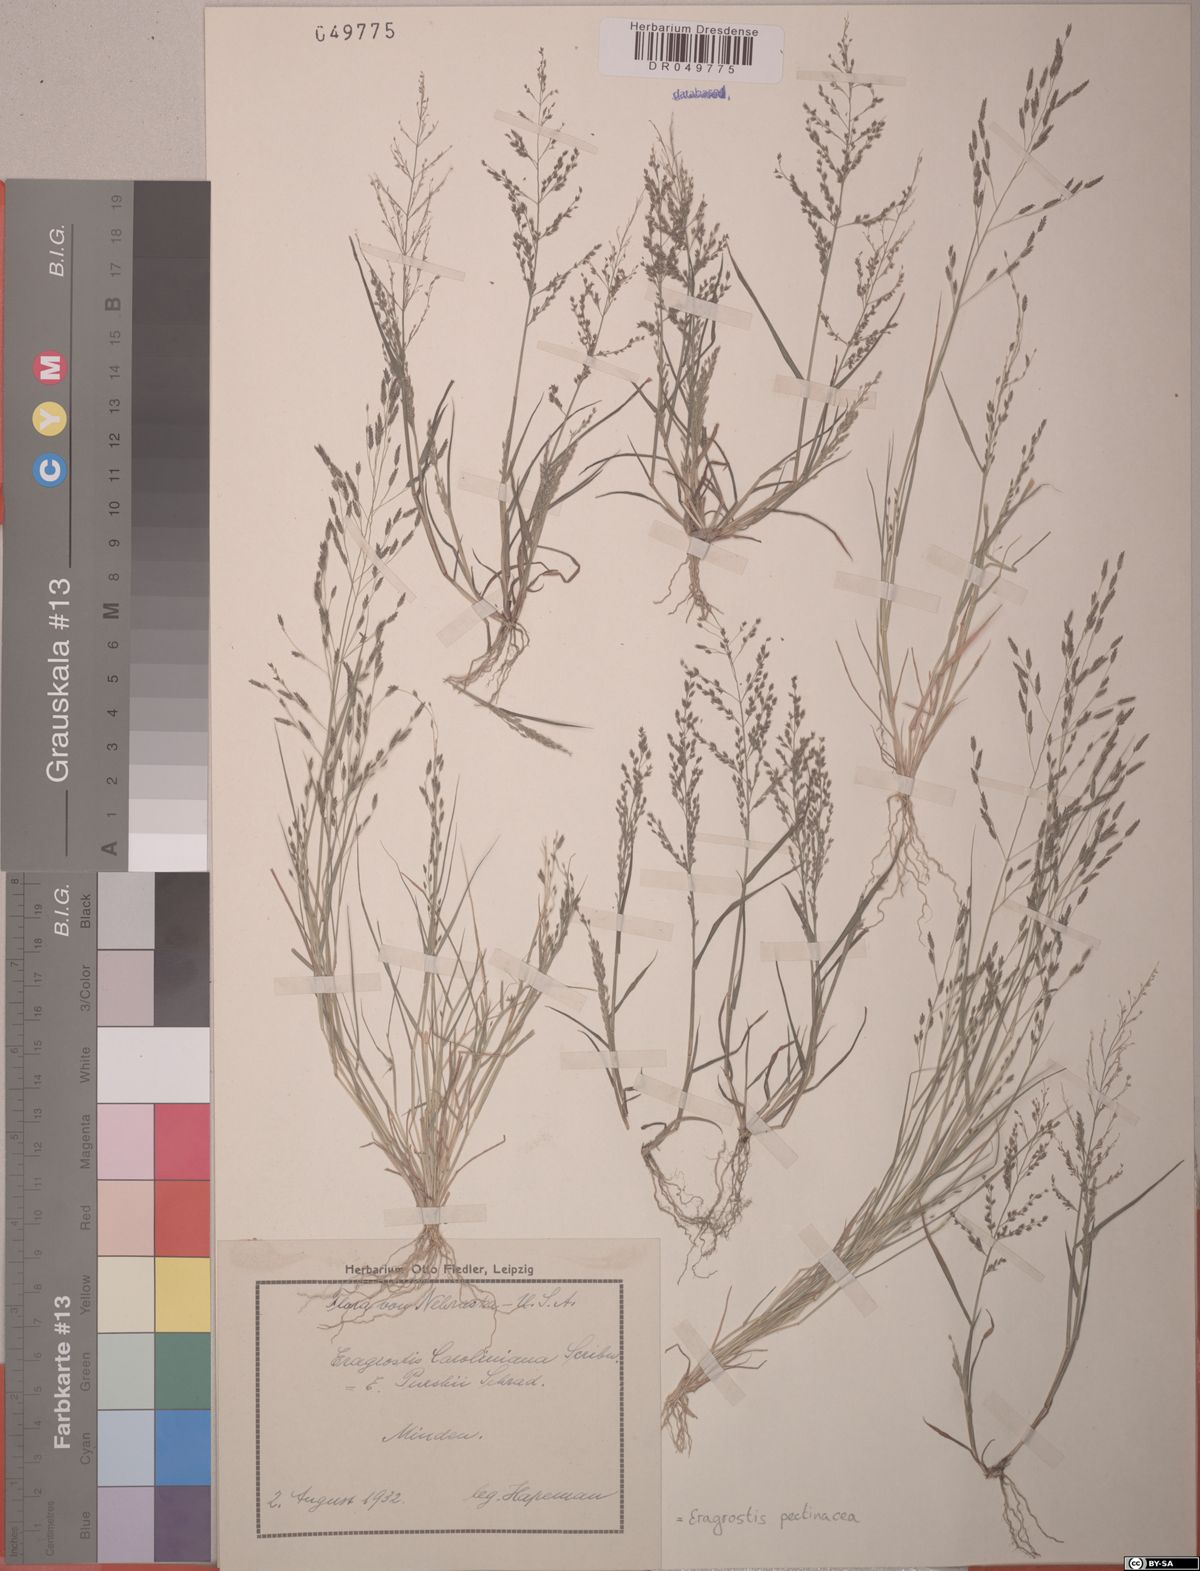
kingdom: Plantae
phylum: Tracheophyta
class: Liliopsida
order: Poales
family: Poaceae
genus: Eragrostis
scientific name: Eragrostis pectinacea
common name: Tufted lovegrass
